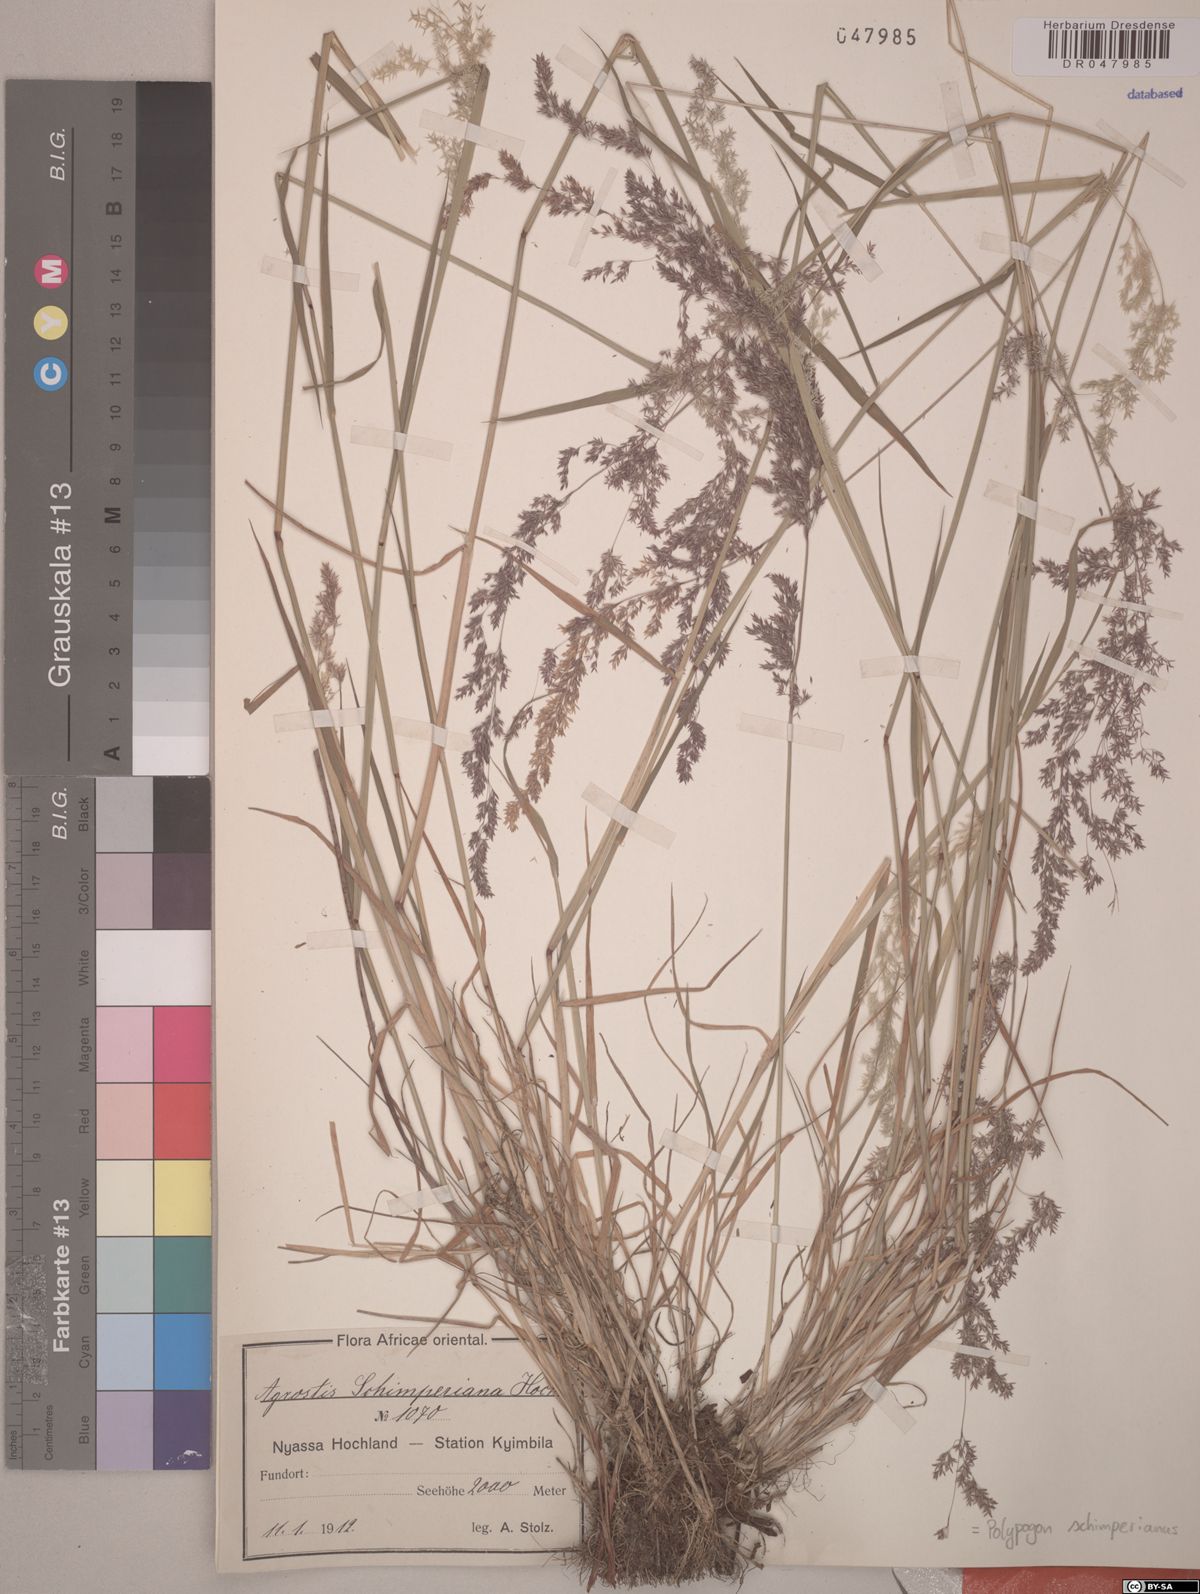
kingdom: Plantae
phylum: Tracheophyta
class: Liliopsida
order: Poales
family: Poaceae
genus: Polypogon
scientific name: Polypogon schimperianus
